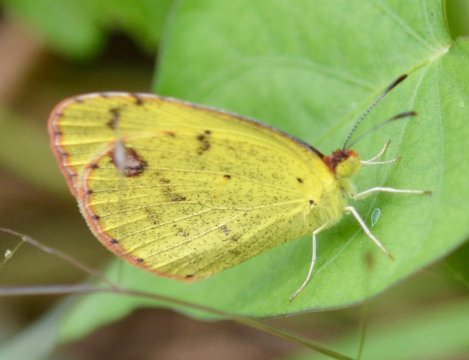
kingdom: Animalia
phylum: Arthropoda
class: Insecta
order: Lepidoptera
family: Pieridae
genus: Pyrisitia
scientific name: Pyrisitia lisa
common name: Little Yellow
